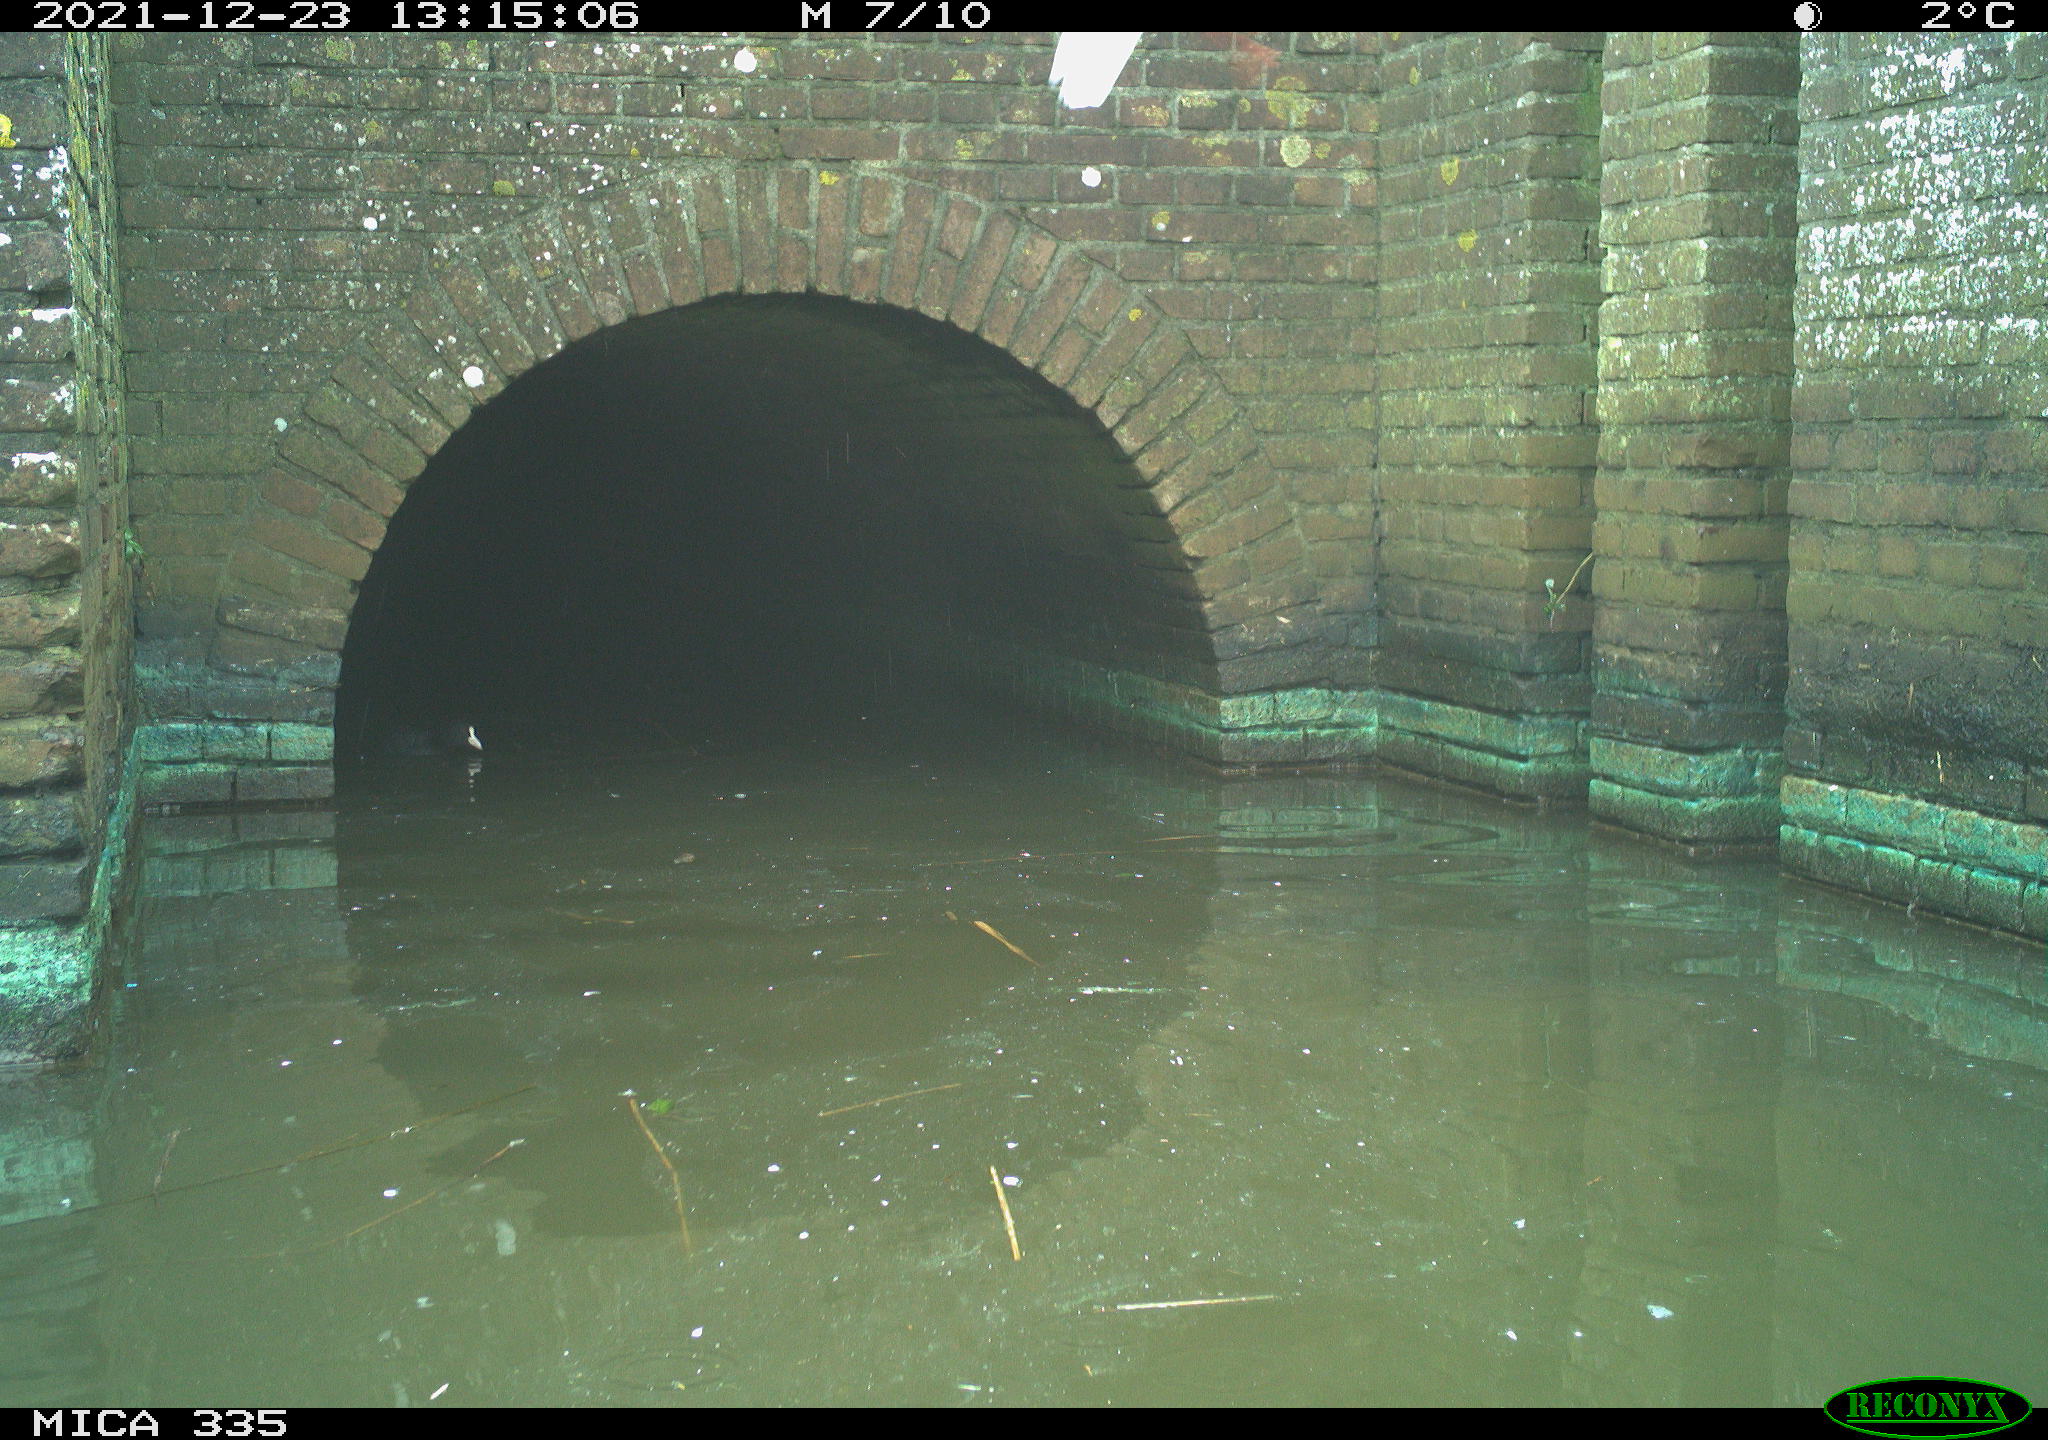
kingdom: Animalia
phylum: Chordata
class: Aves
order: Gruiformes
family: Rallidae
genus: Fulica
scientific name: Fulica atra
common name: Eurasian coot
